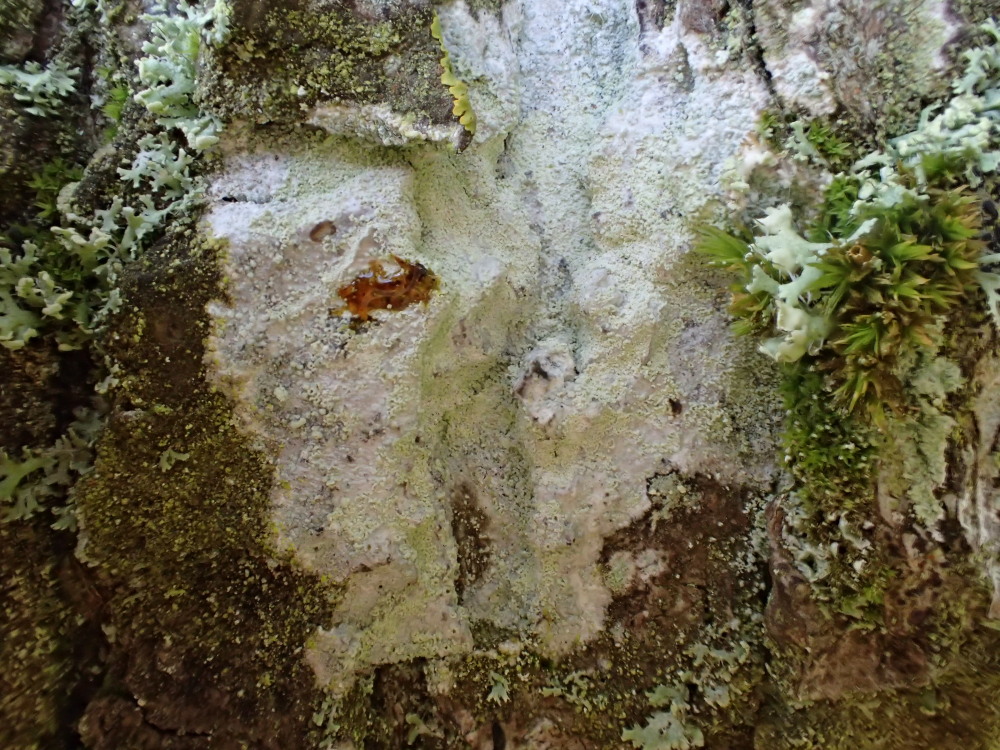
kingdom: Fungi
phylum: Ascomycota
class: Lecanoromycetes
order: Ostropales
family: Phlyctidaceae
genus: Phlyctis
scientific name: Phlyctis argena
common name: almindelig sølvlav
